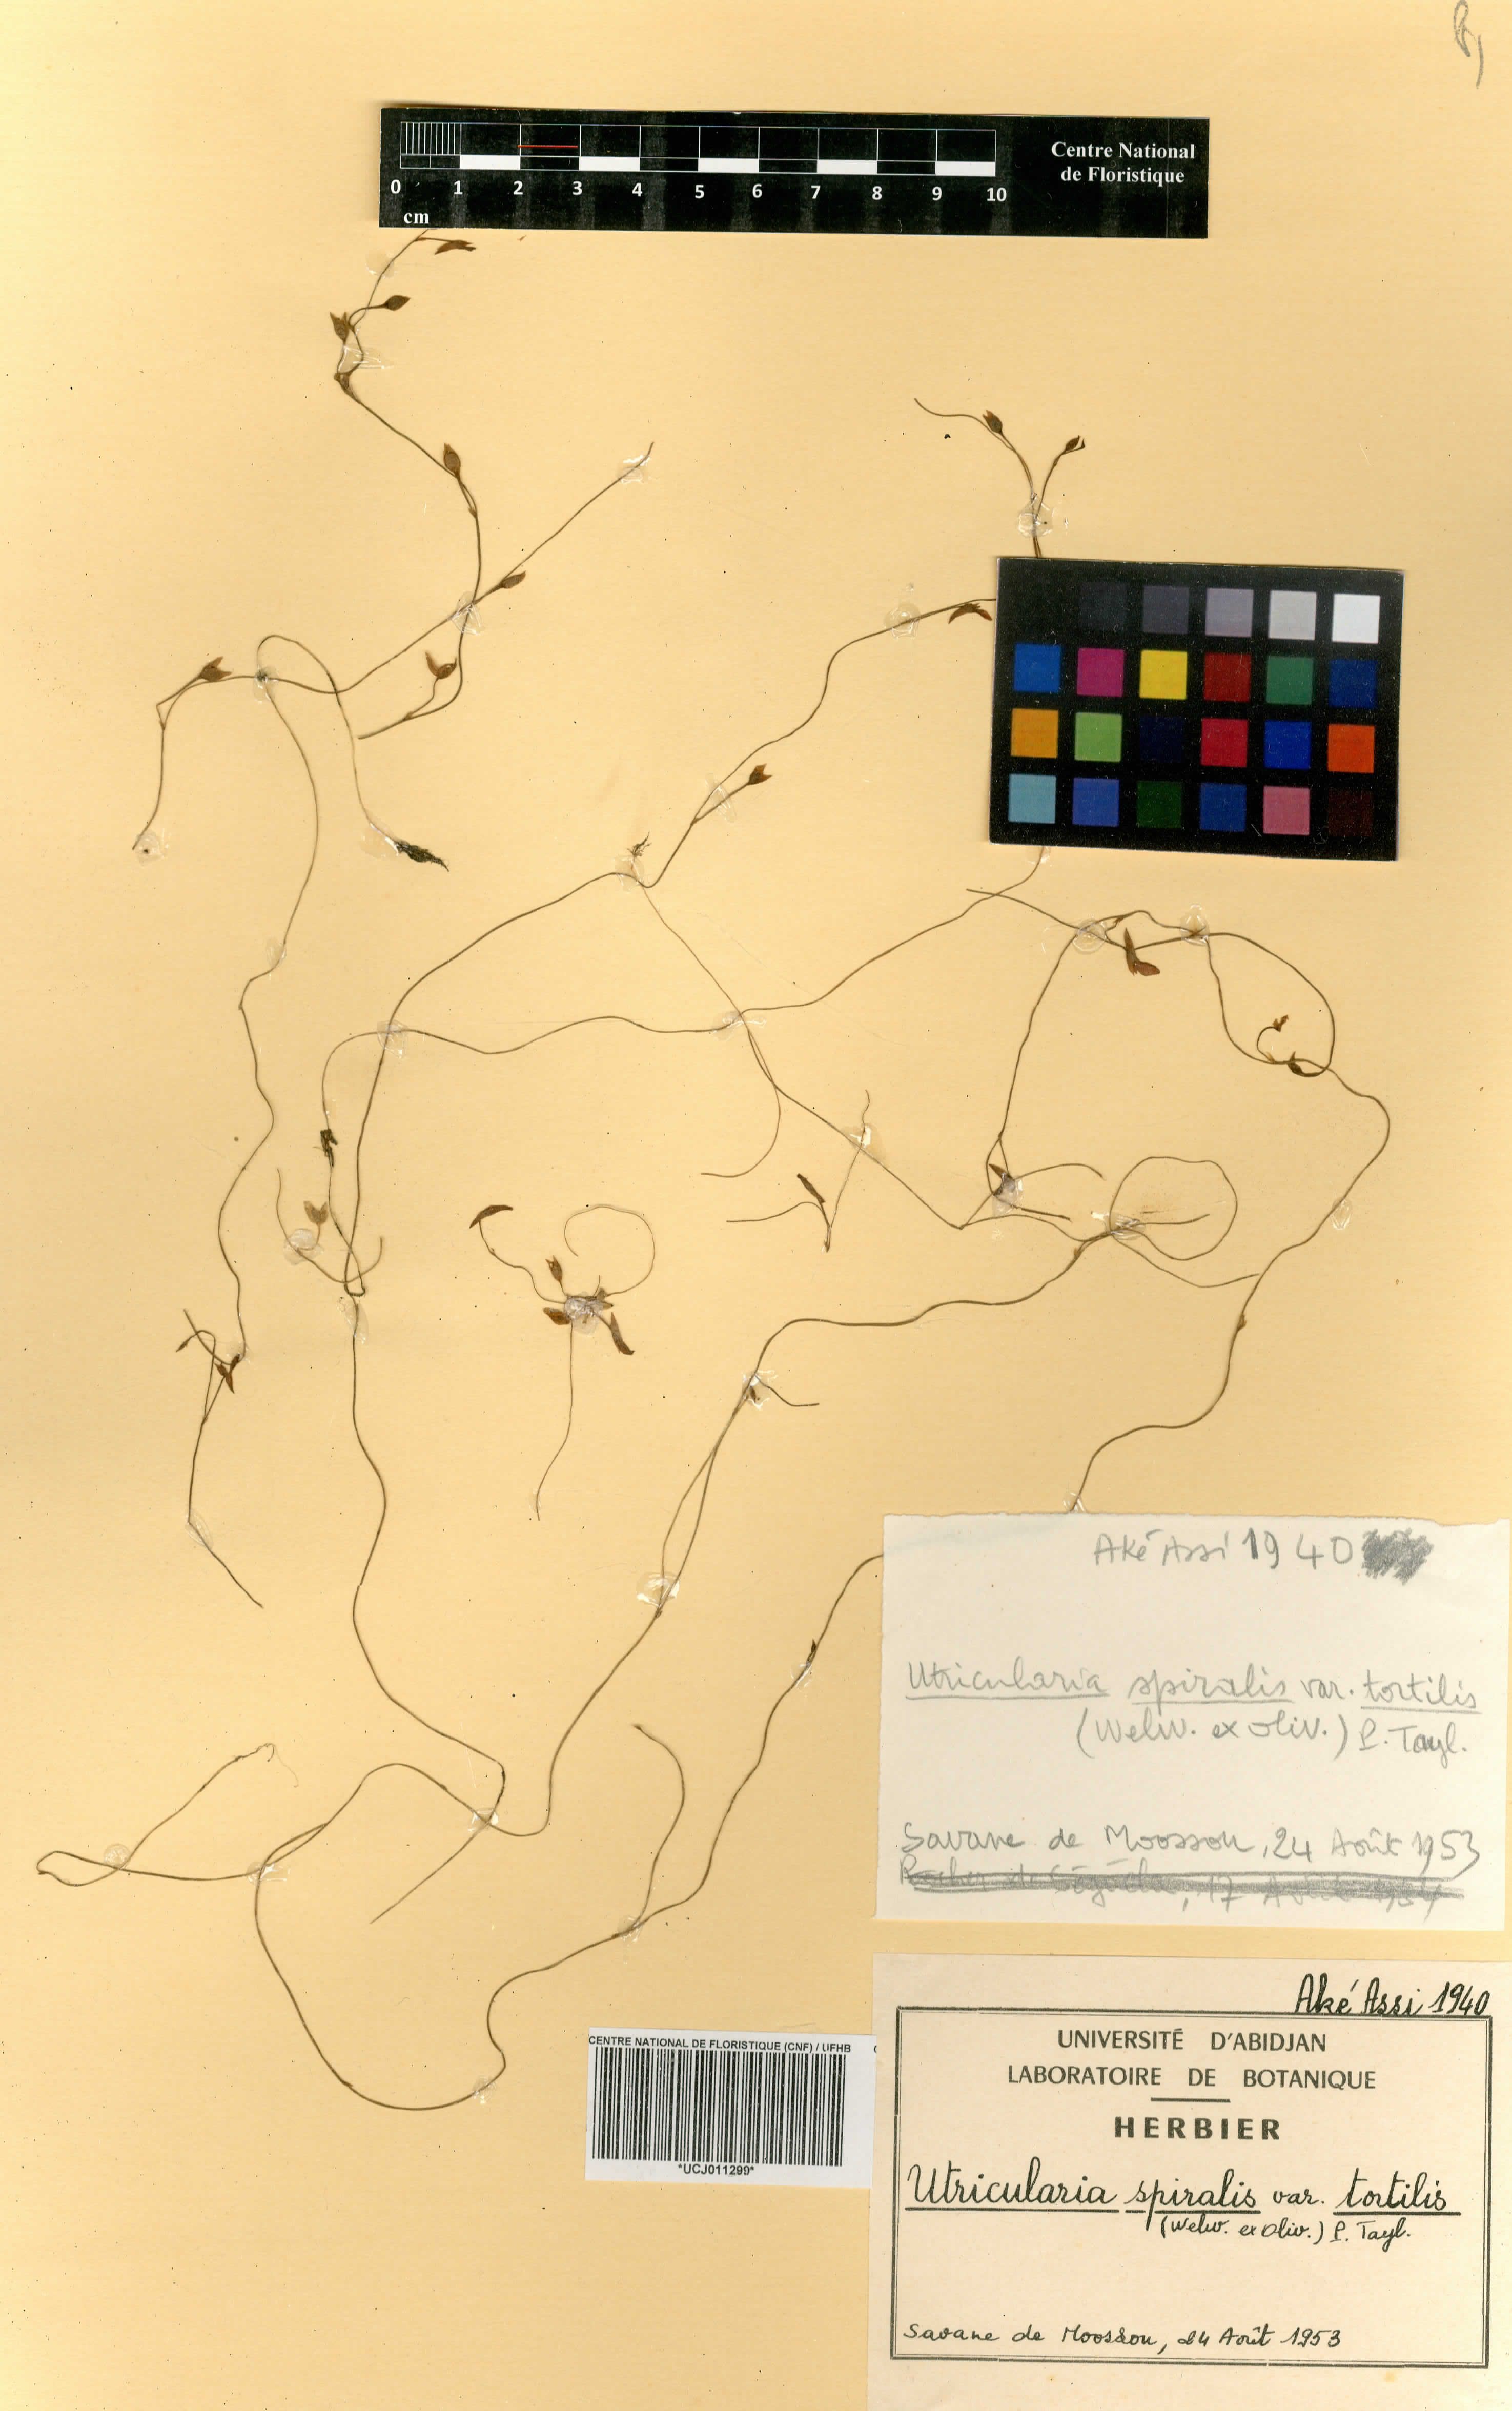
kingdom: Plantae
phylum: Tracheophyta
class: Magnoliopsida
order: Lamiales
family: Lentibulariaceae
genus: Utricularia
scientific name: Utricularia tortilis
